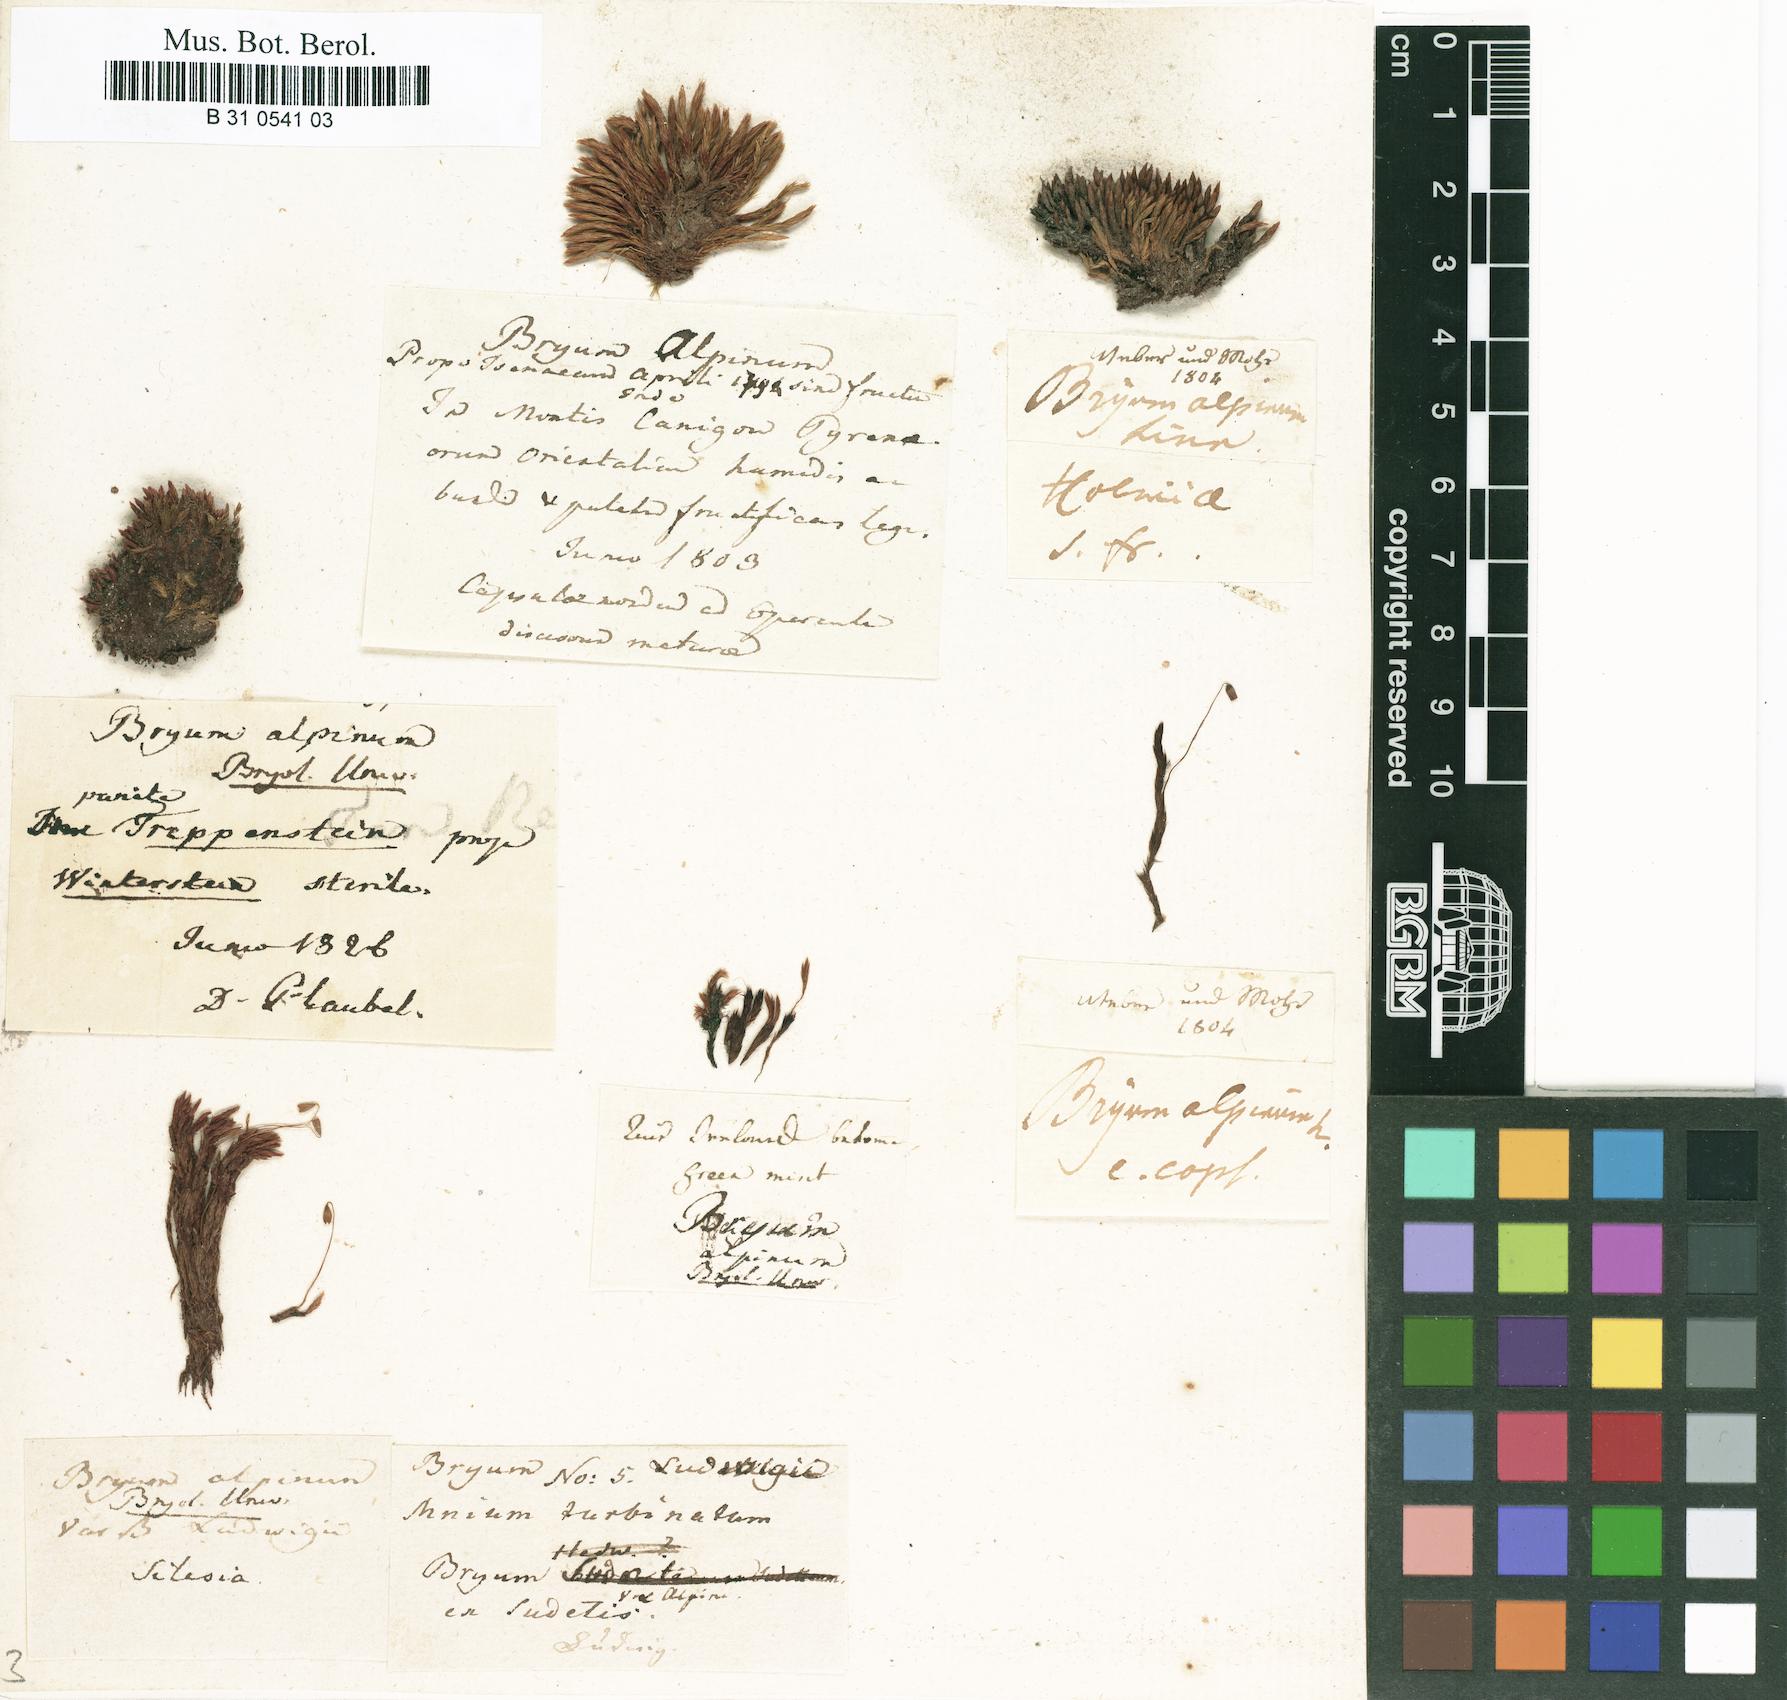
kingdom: Plantae
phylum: Bryophyta
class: Bryopsida
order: Bryales
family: Bryaceae
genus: Imbribryum
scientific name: Imbribryum alpinum
